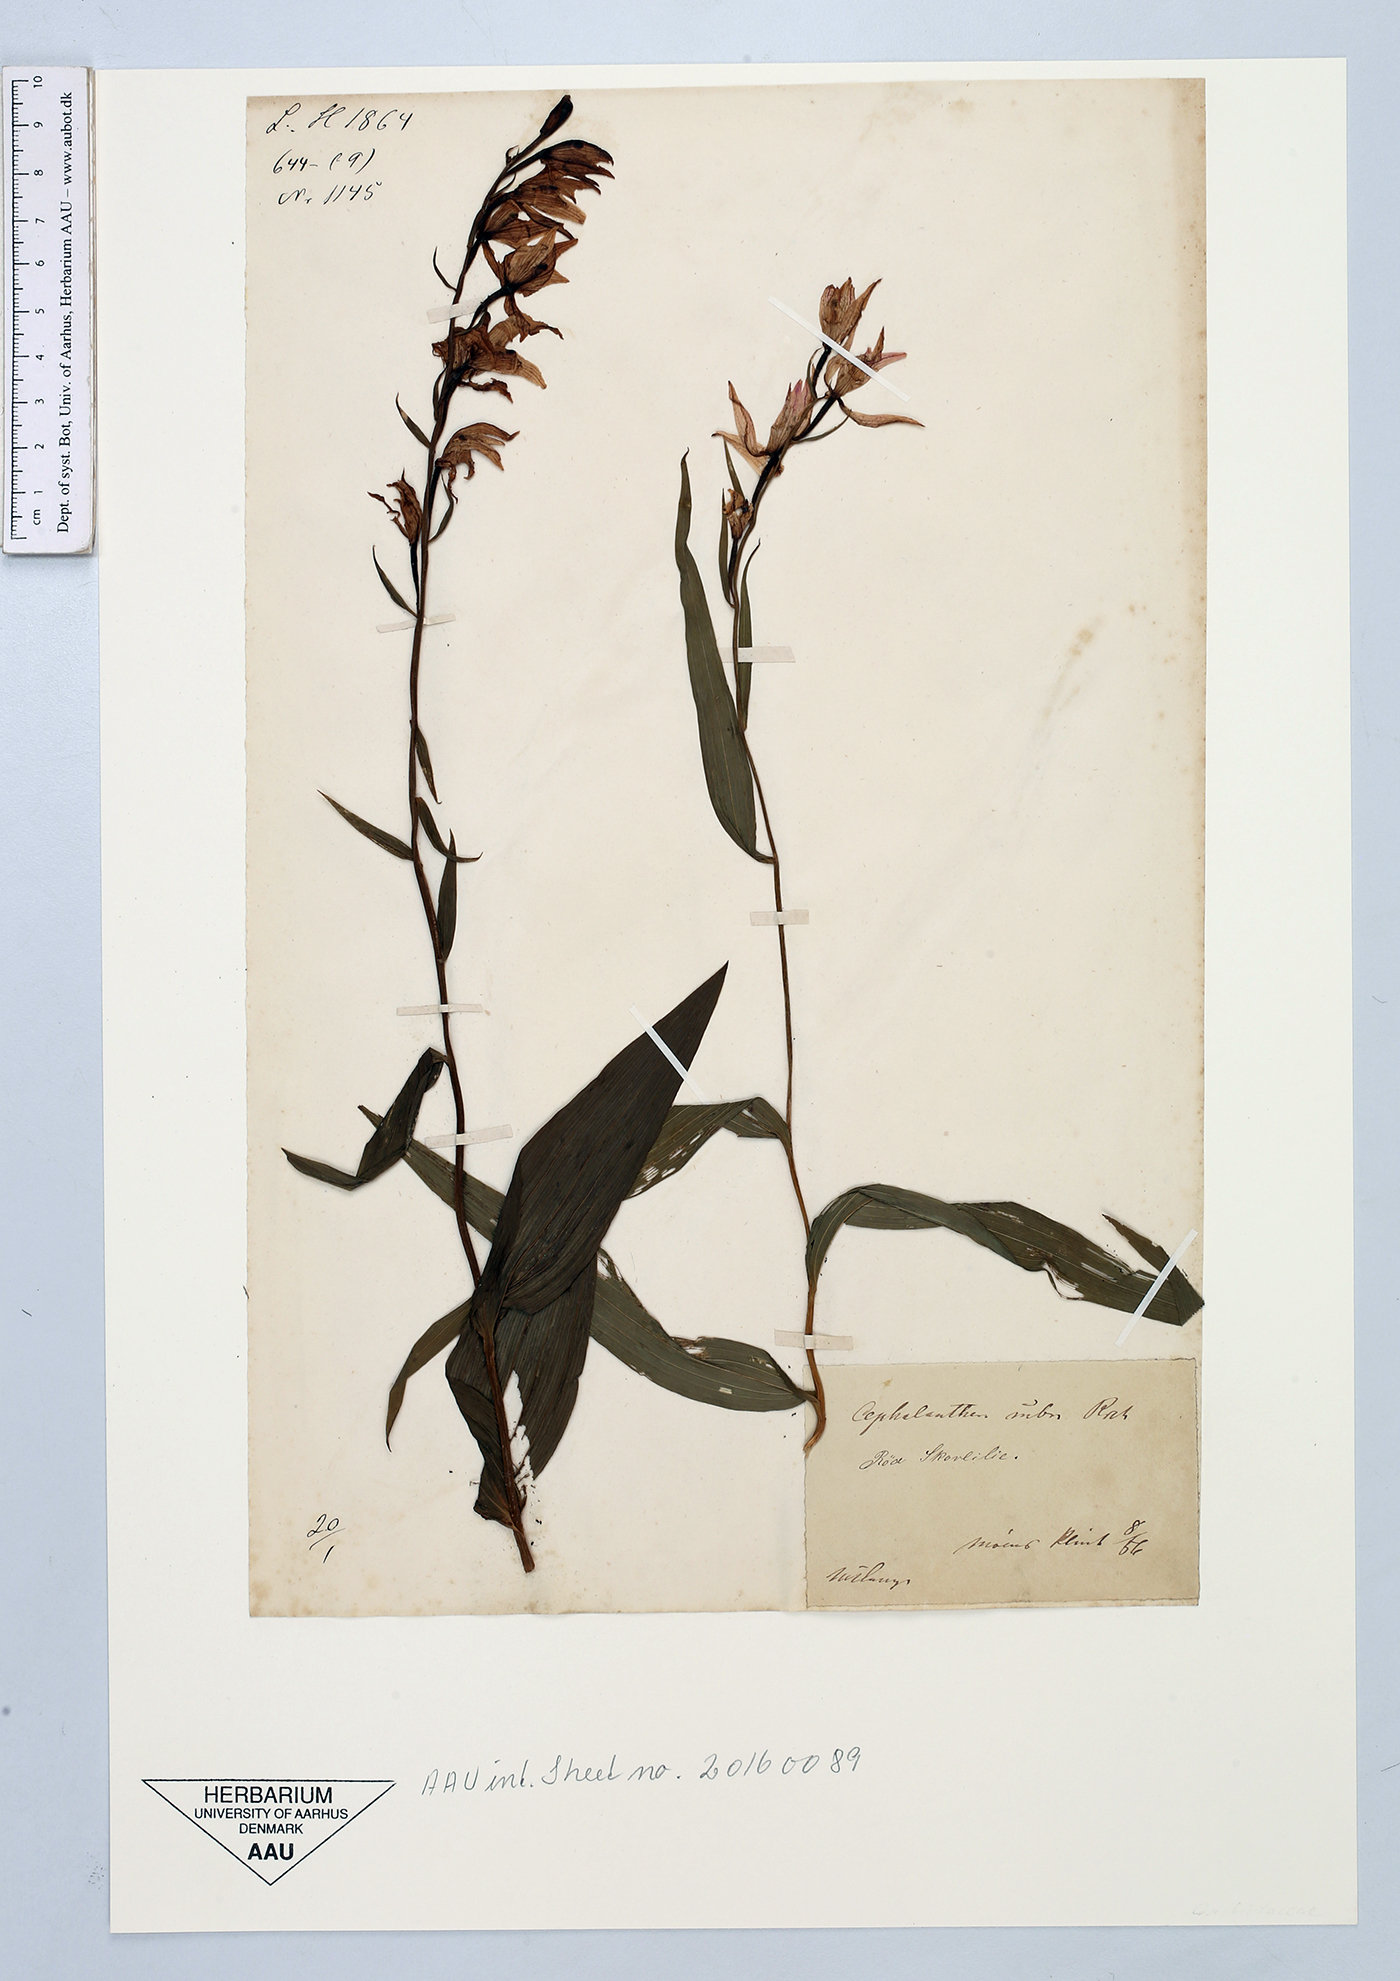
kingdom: Plantae
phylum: Tracheophyta
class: Liliopsida
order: Asparagales
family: Orchidaceae
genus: Cephalanthera
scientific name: Cephalanthera rubra
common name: Red helleborine
